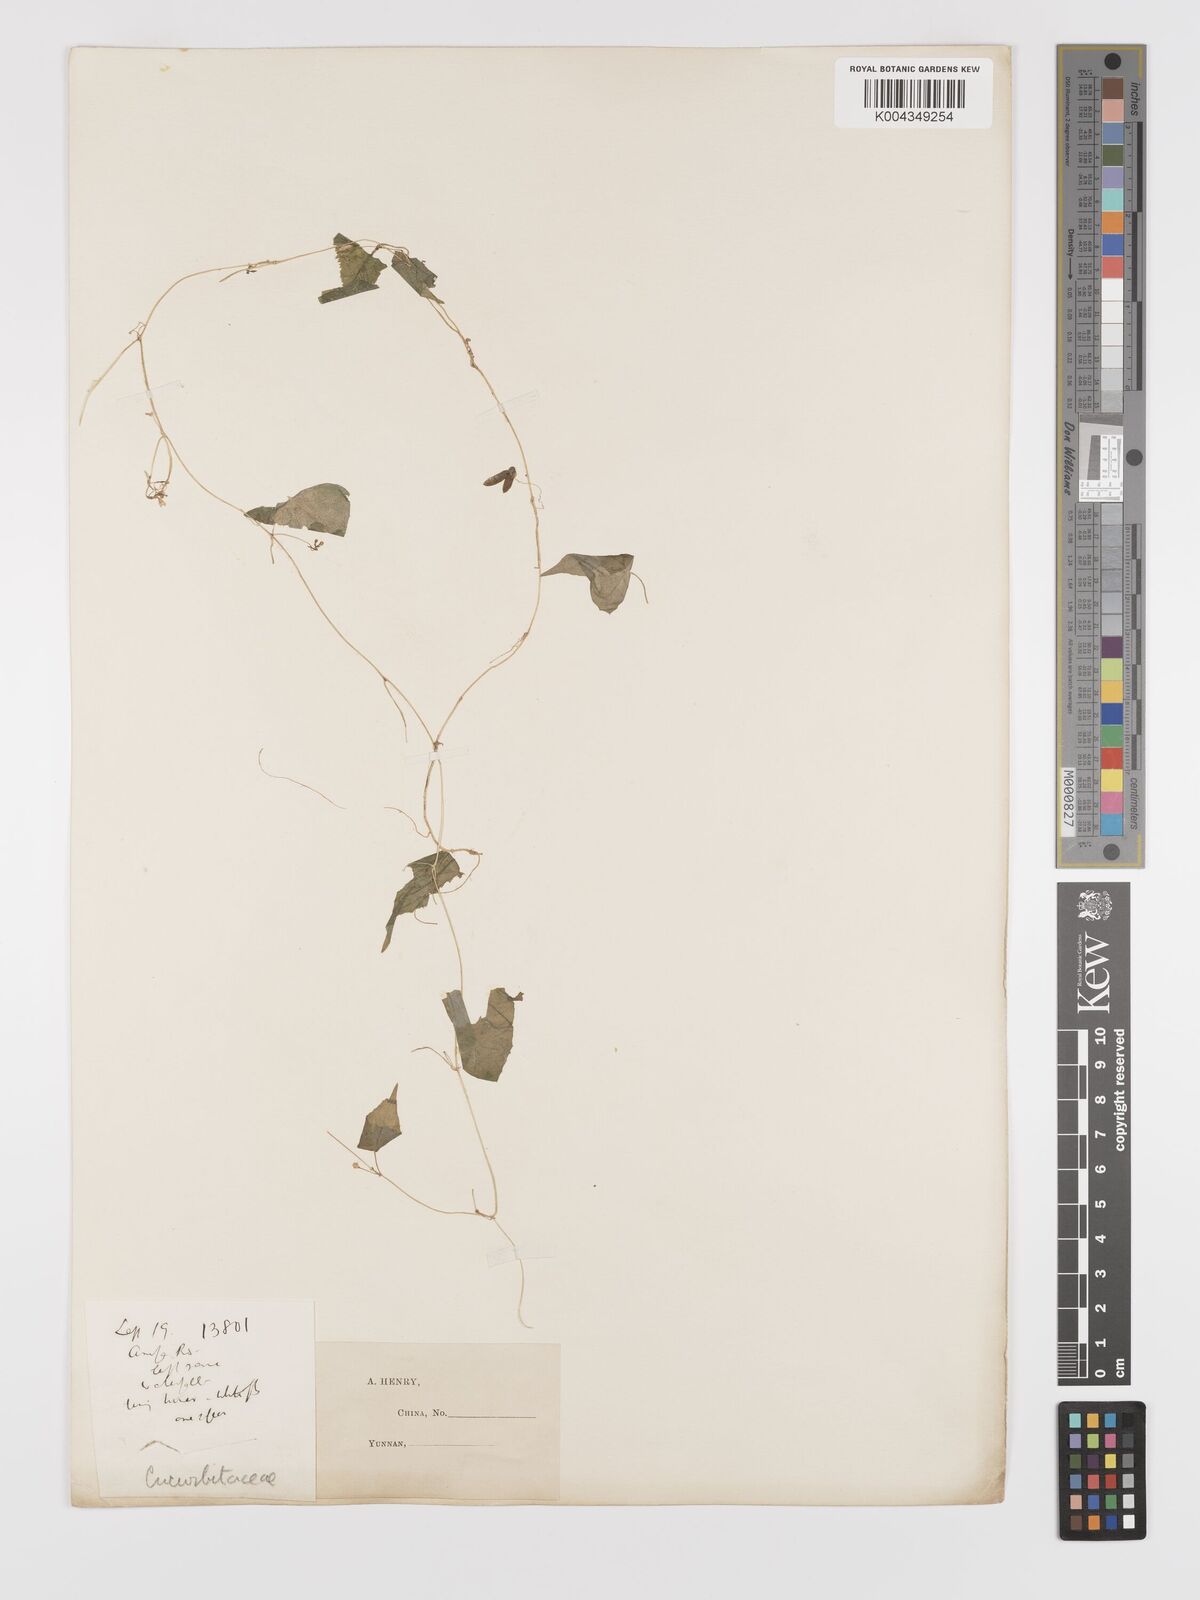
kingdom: Plantae
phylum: Tracheophyta
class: Magnoliopsida
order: Cucurbitales
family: Cucurbitaceae
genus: Zehneria
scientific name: Zehneria japonica
